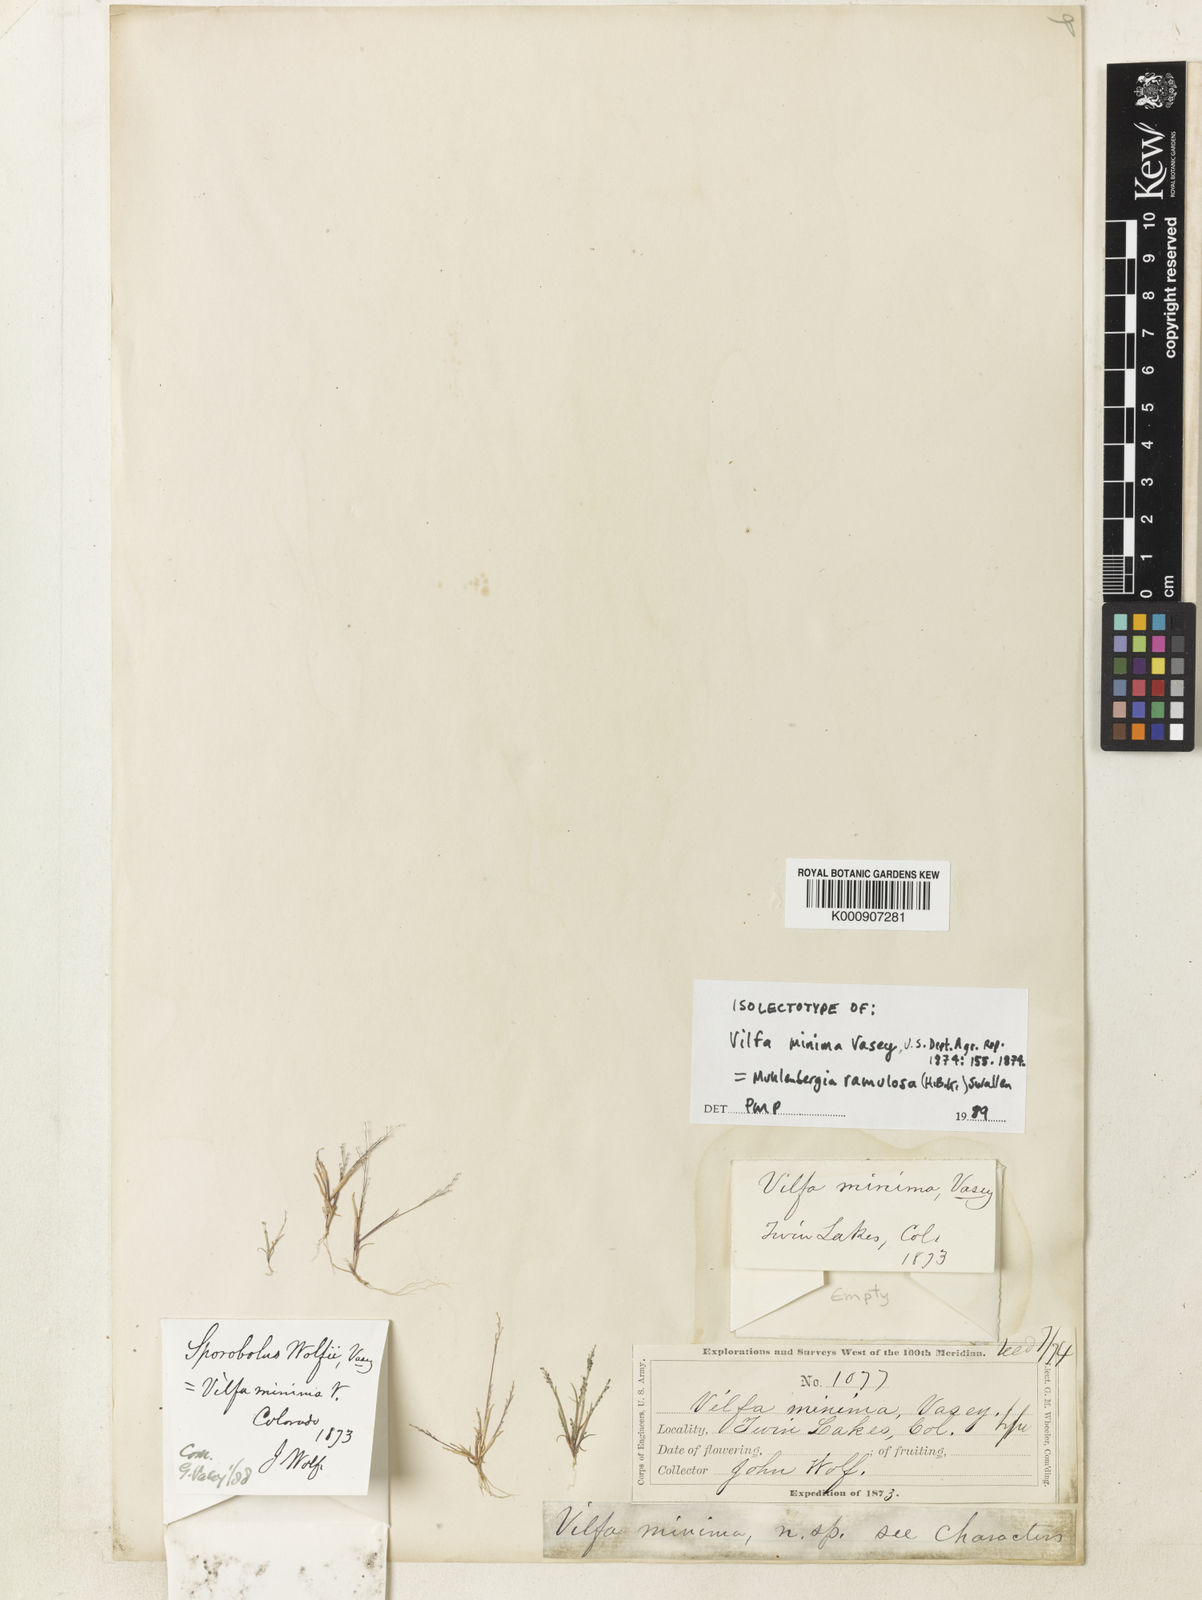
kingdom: Plantae
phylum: Tracheophyta
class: Liliopsida
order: Poales
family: Poaceae
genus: Muhlenbergia
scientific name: Muhlenbergia minutissima
